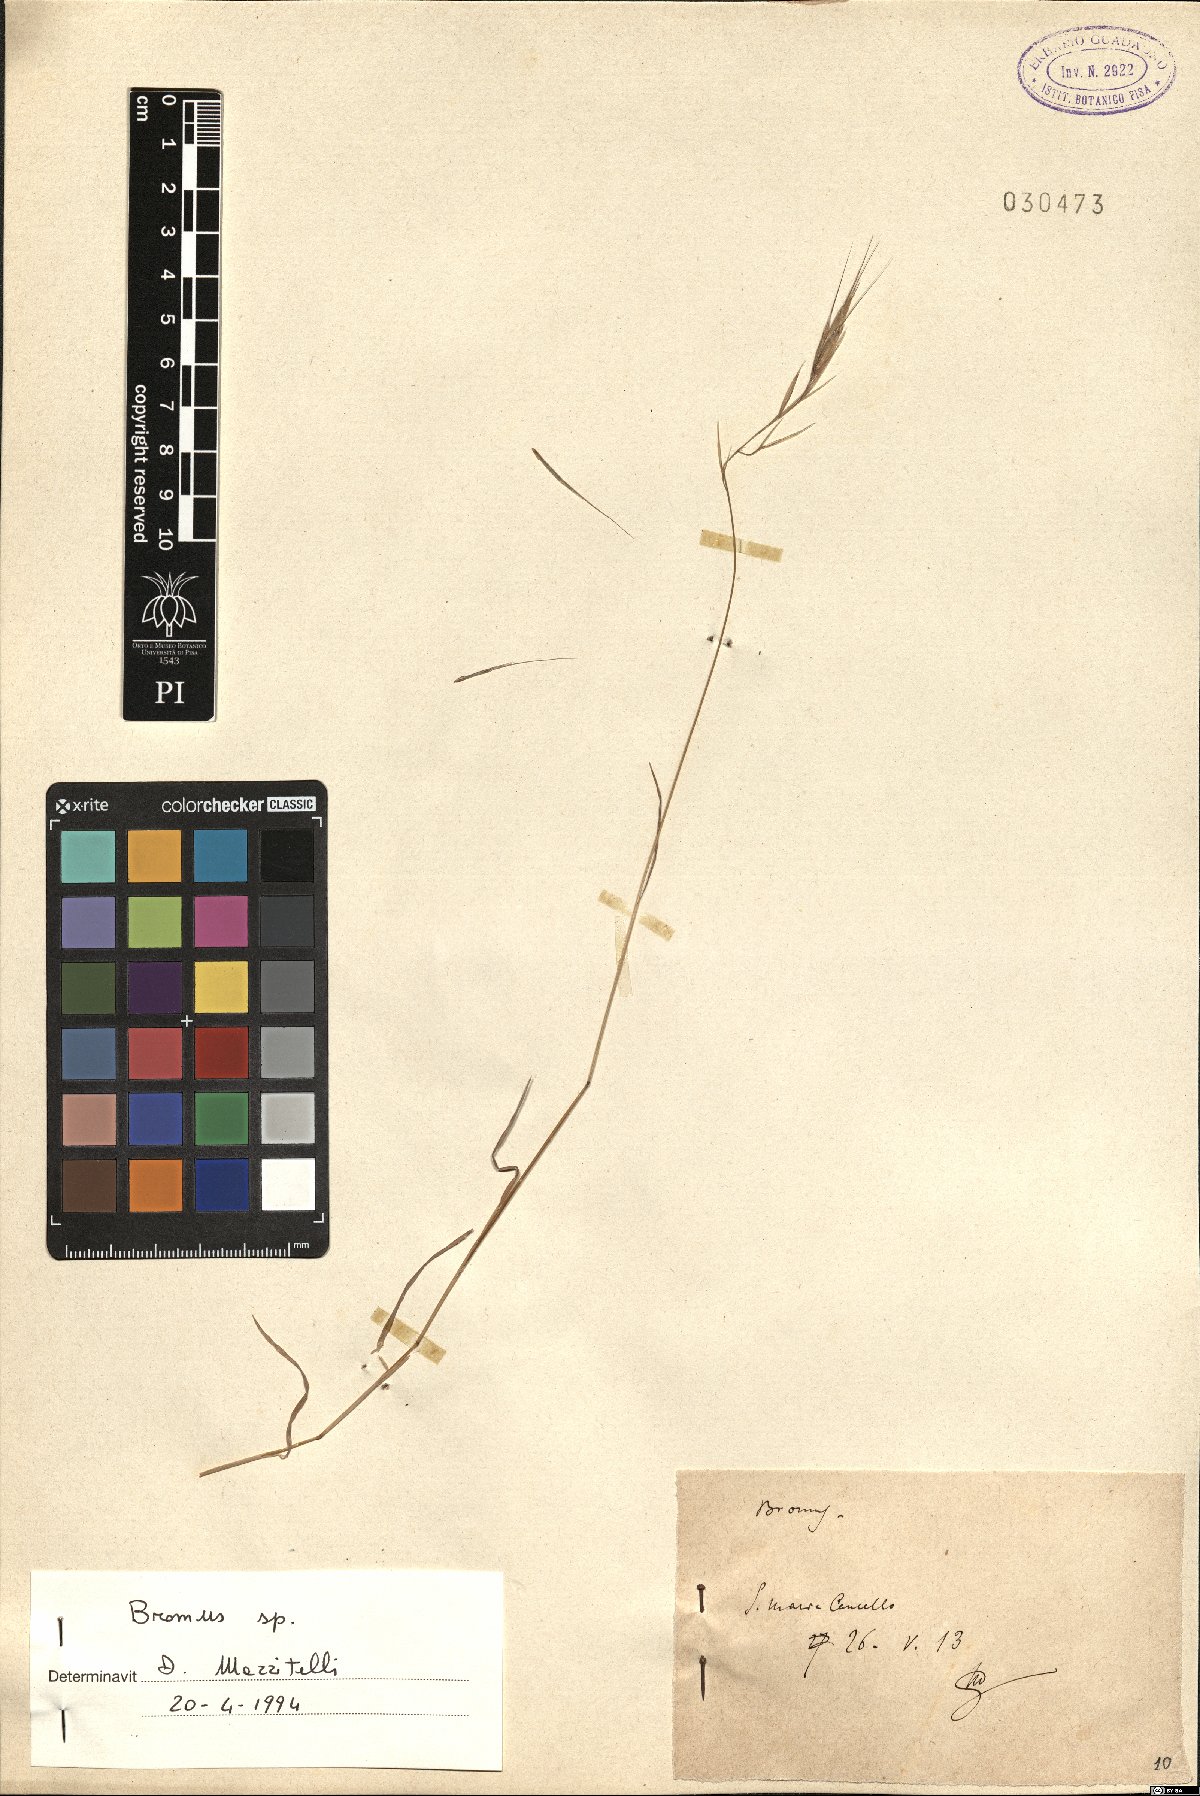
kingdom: Plantae
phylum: Tracheophyta
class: Liliopsida
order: Poales
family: Poaceae
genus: Bromus
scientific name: Bromus
